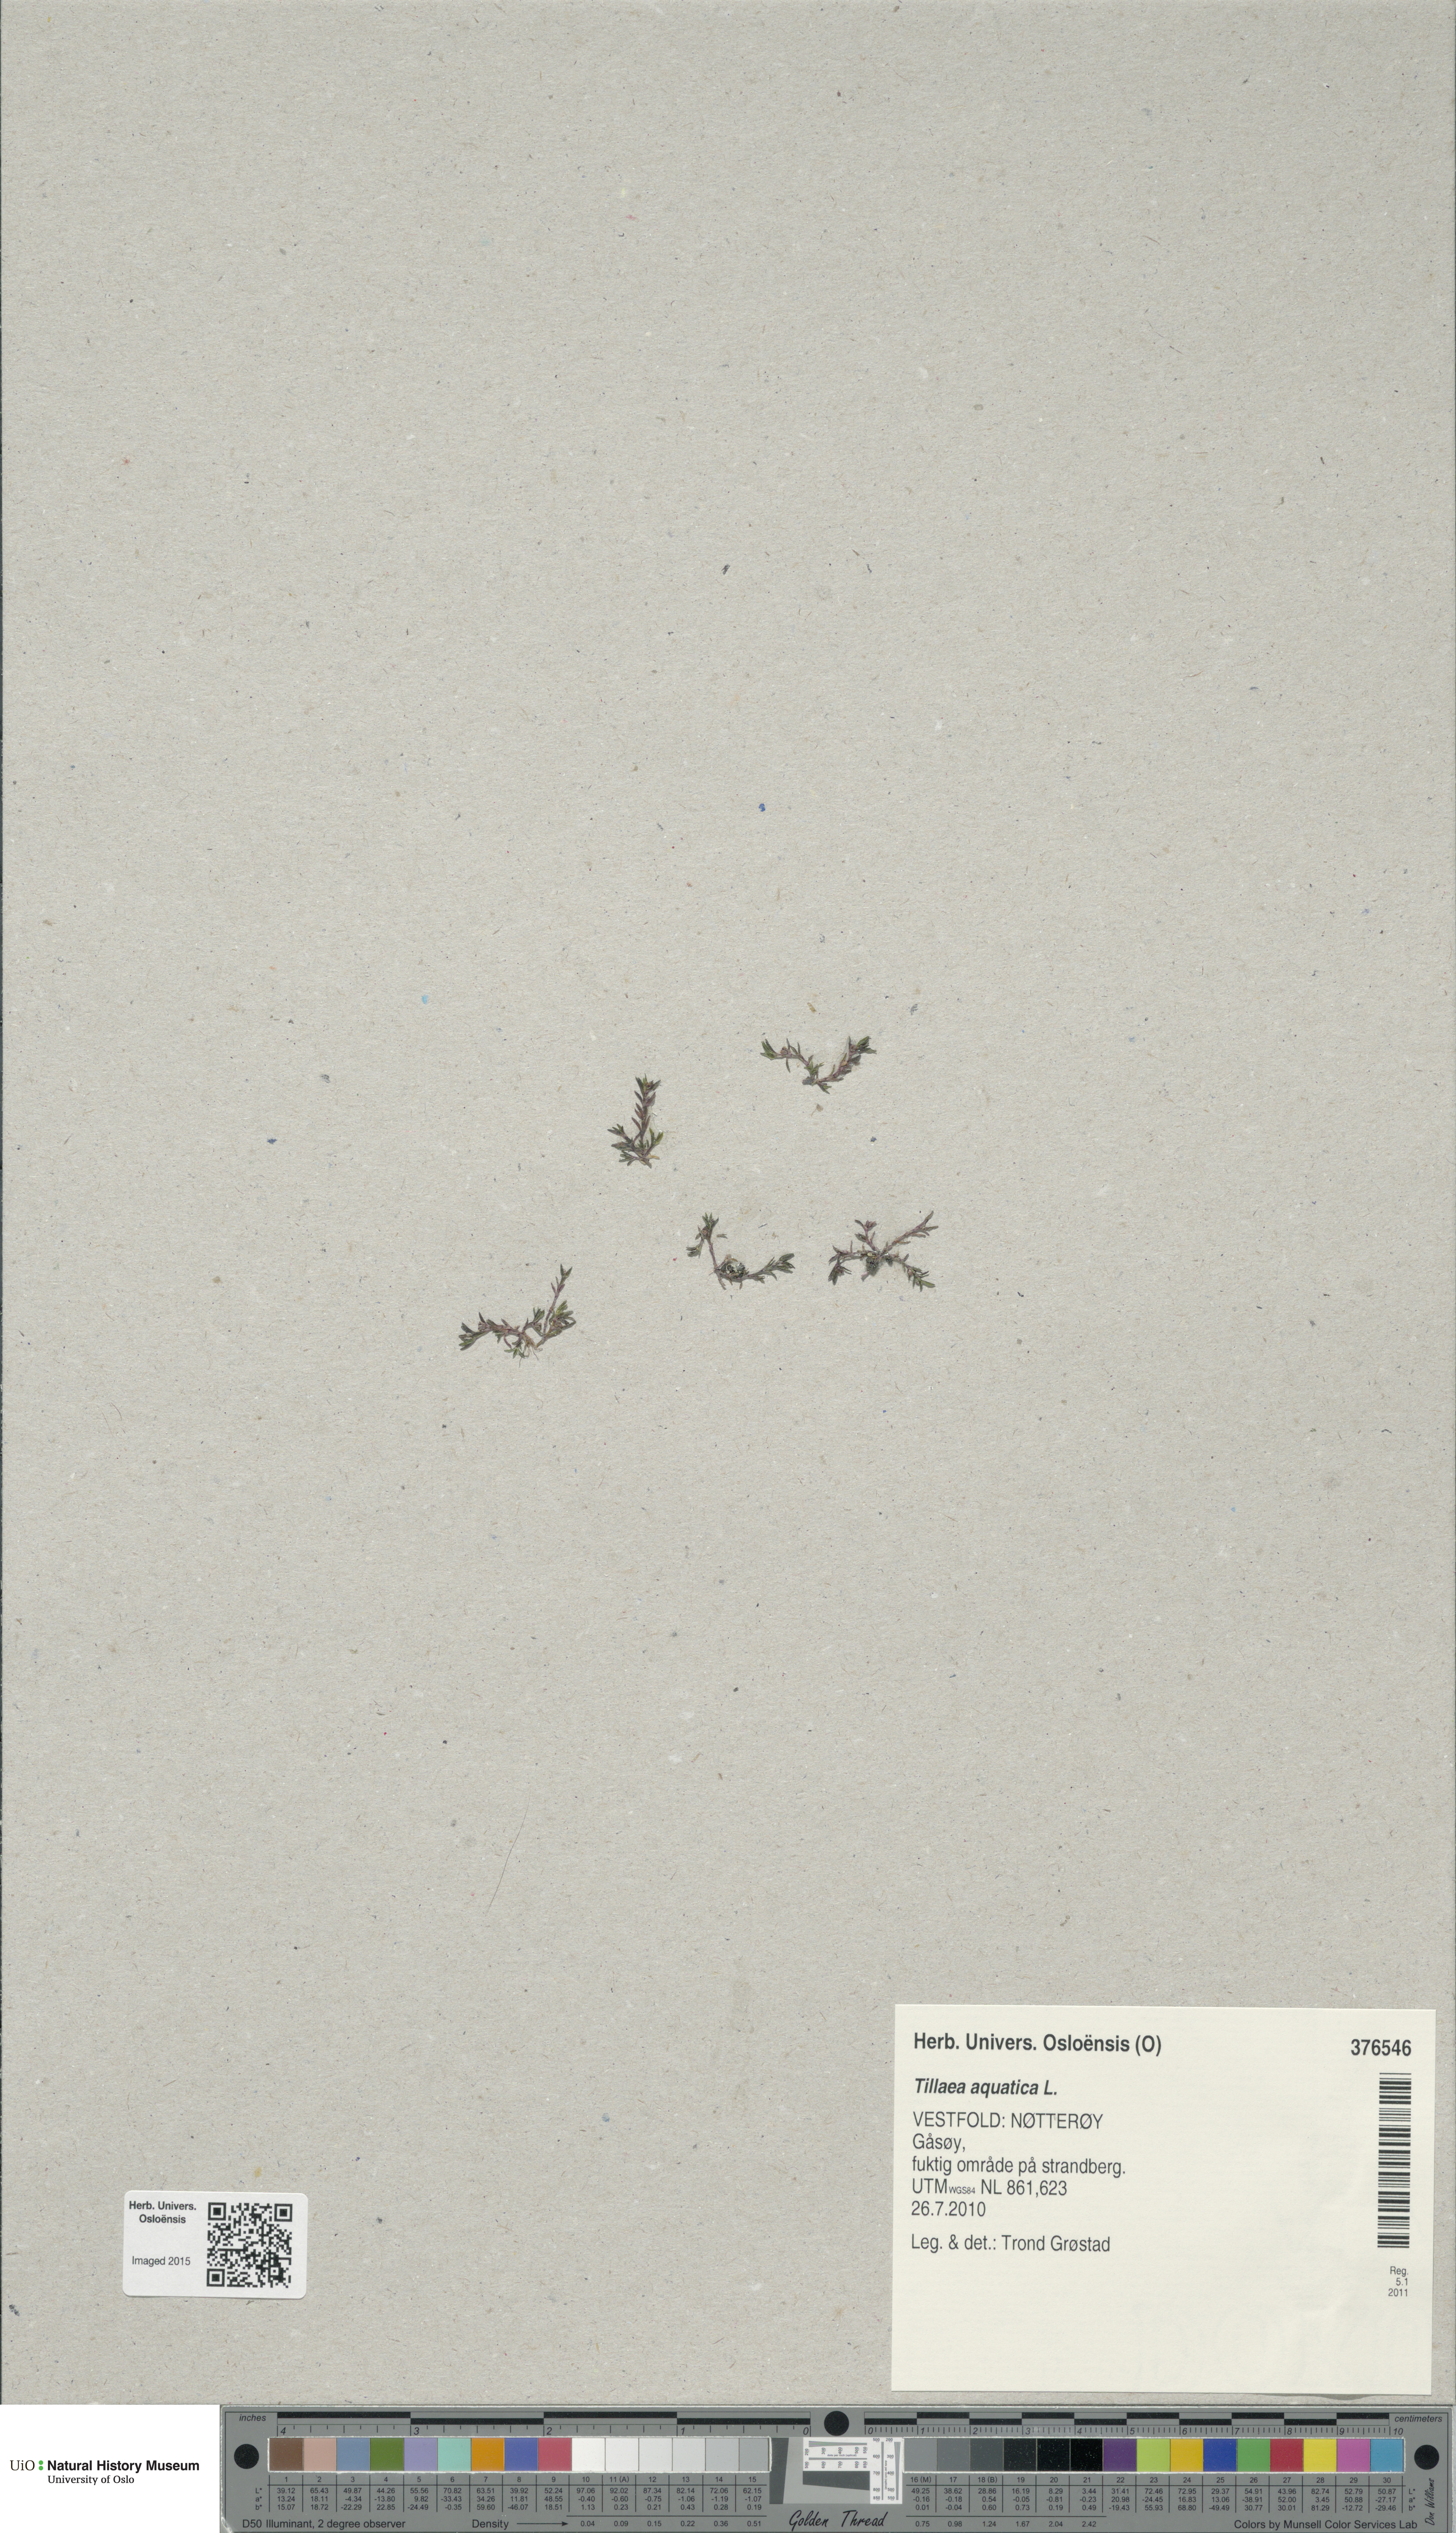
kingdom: Plantae
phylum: Tracheophyta
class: Magnoliopsida
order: Saxifragales
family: Crassulaceae
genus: Crassula
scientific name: Crassula aquatica
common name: Pigmyweed
